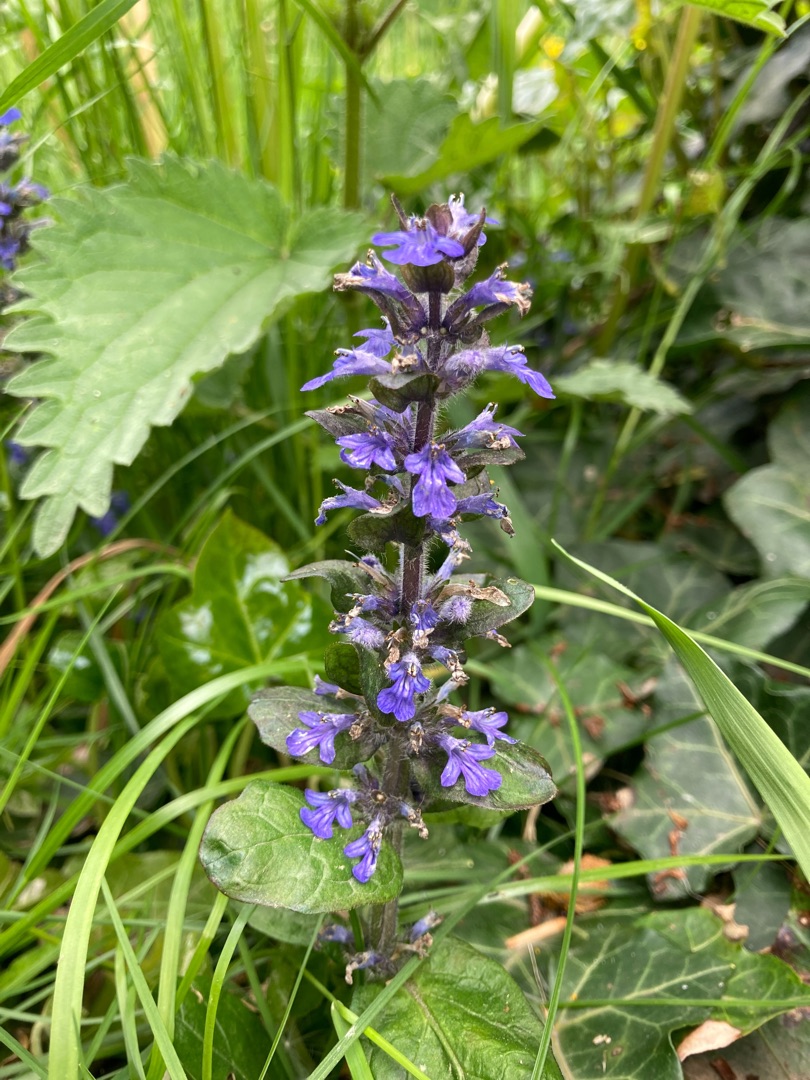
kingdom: Plantae
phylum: Tracheophyta
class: Magnoliopsida
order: Lamiales
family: Lamiaceae
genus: Ajuga
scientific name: Ajuga reptans
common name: Krybende læbeløs
